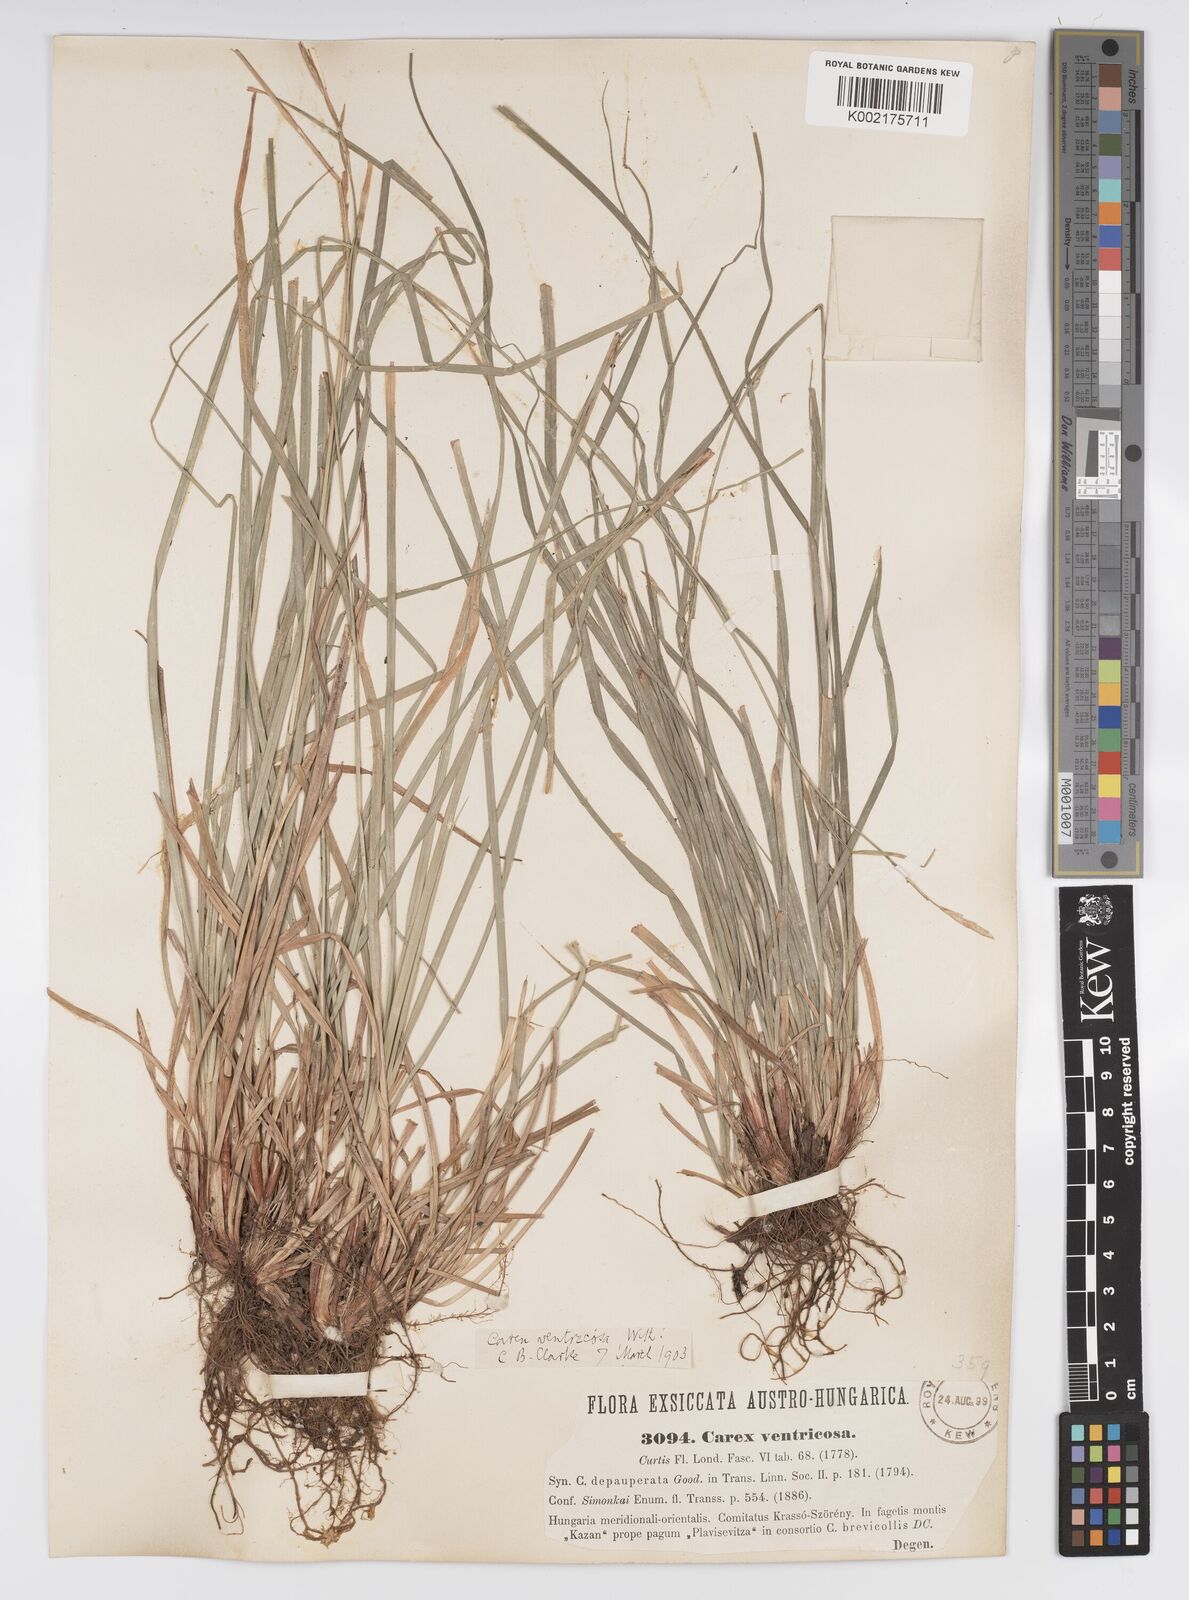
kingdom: Plantae
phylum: Tracheophyta
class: Liliopsida
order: Poales
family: Cyperaceae
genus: Carex
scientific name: Carex
